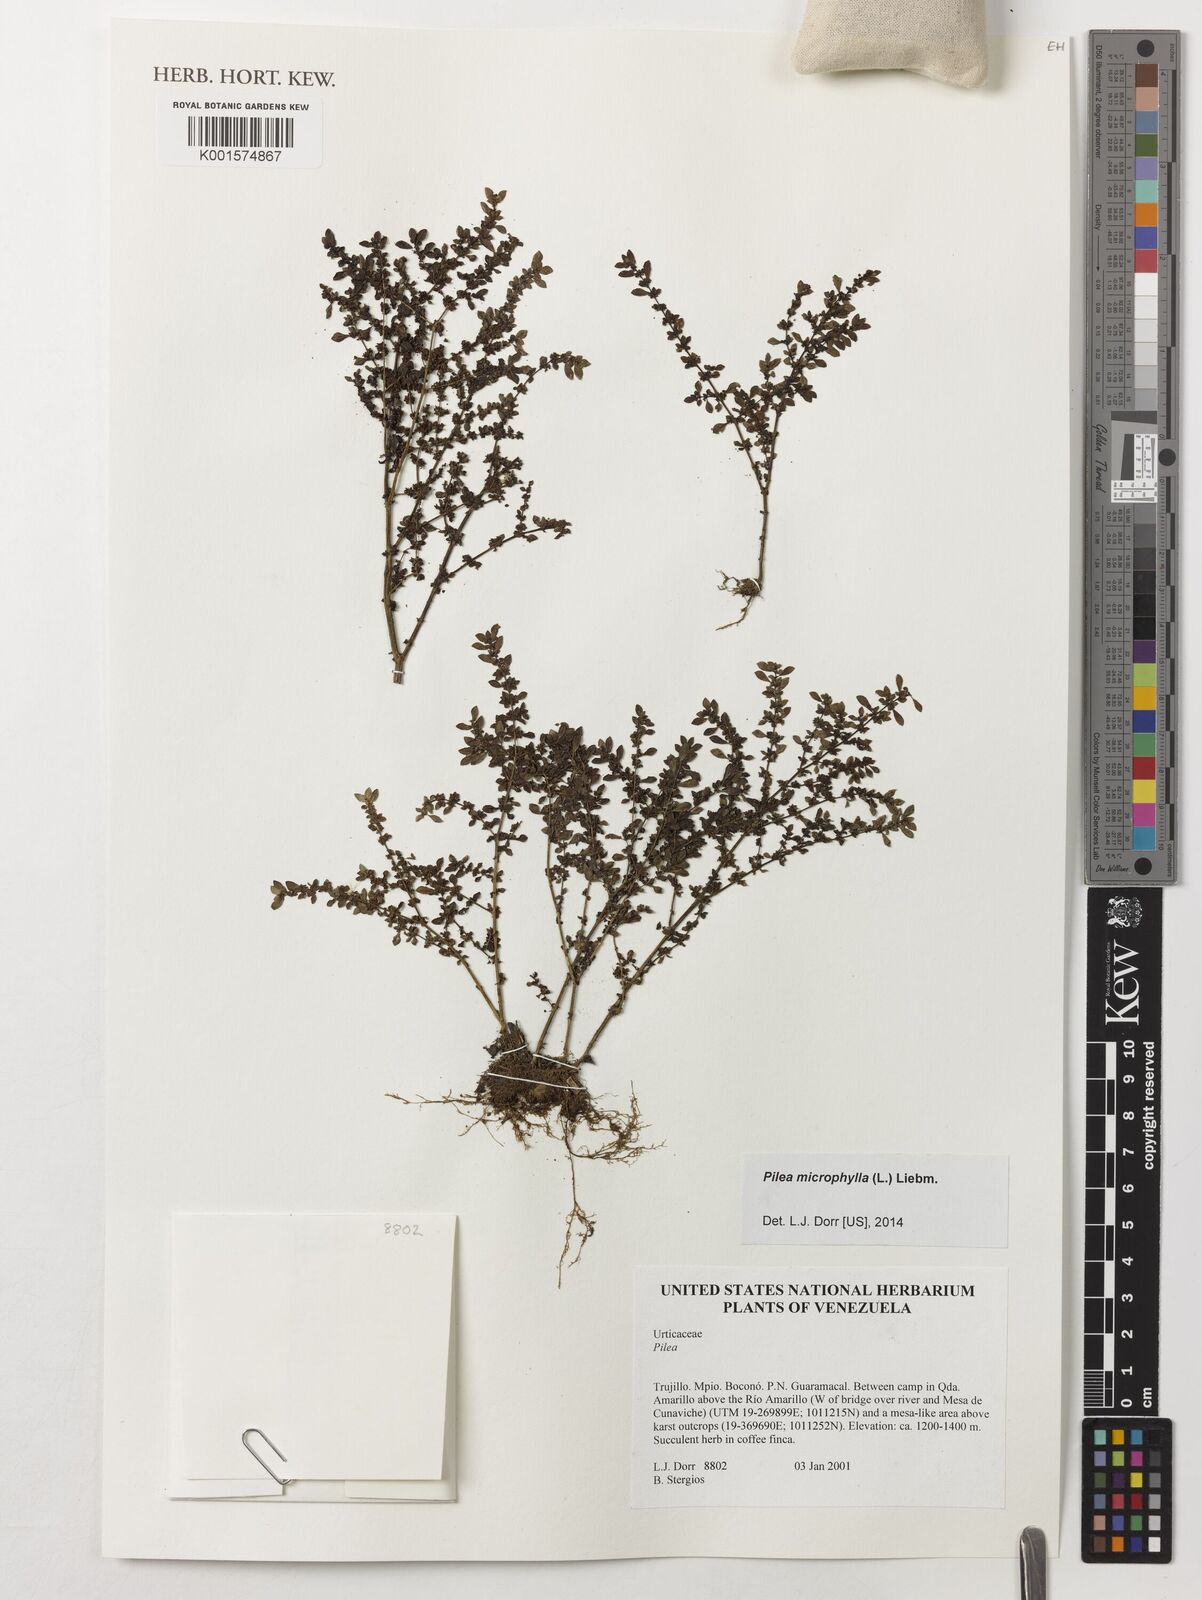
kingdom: Plantae
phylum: Tracheophyta
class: Magnoliopsida
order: Rosales
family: Urticaceae
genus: Pilea
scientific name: Pilea microphylla
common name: Artillery-plant
